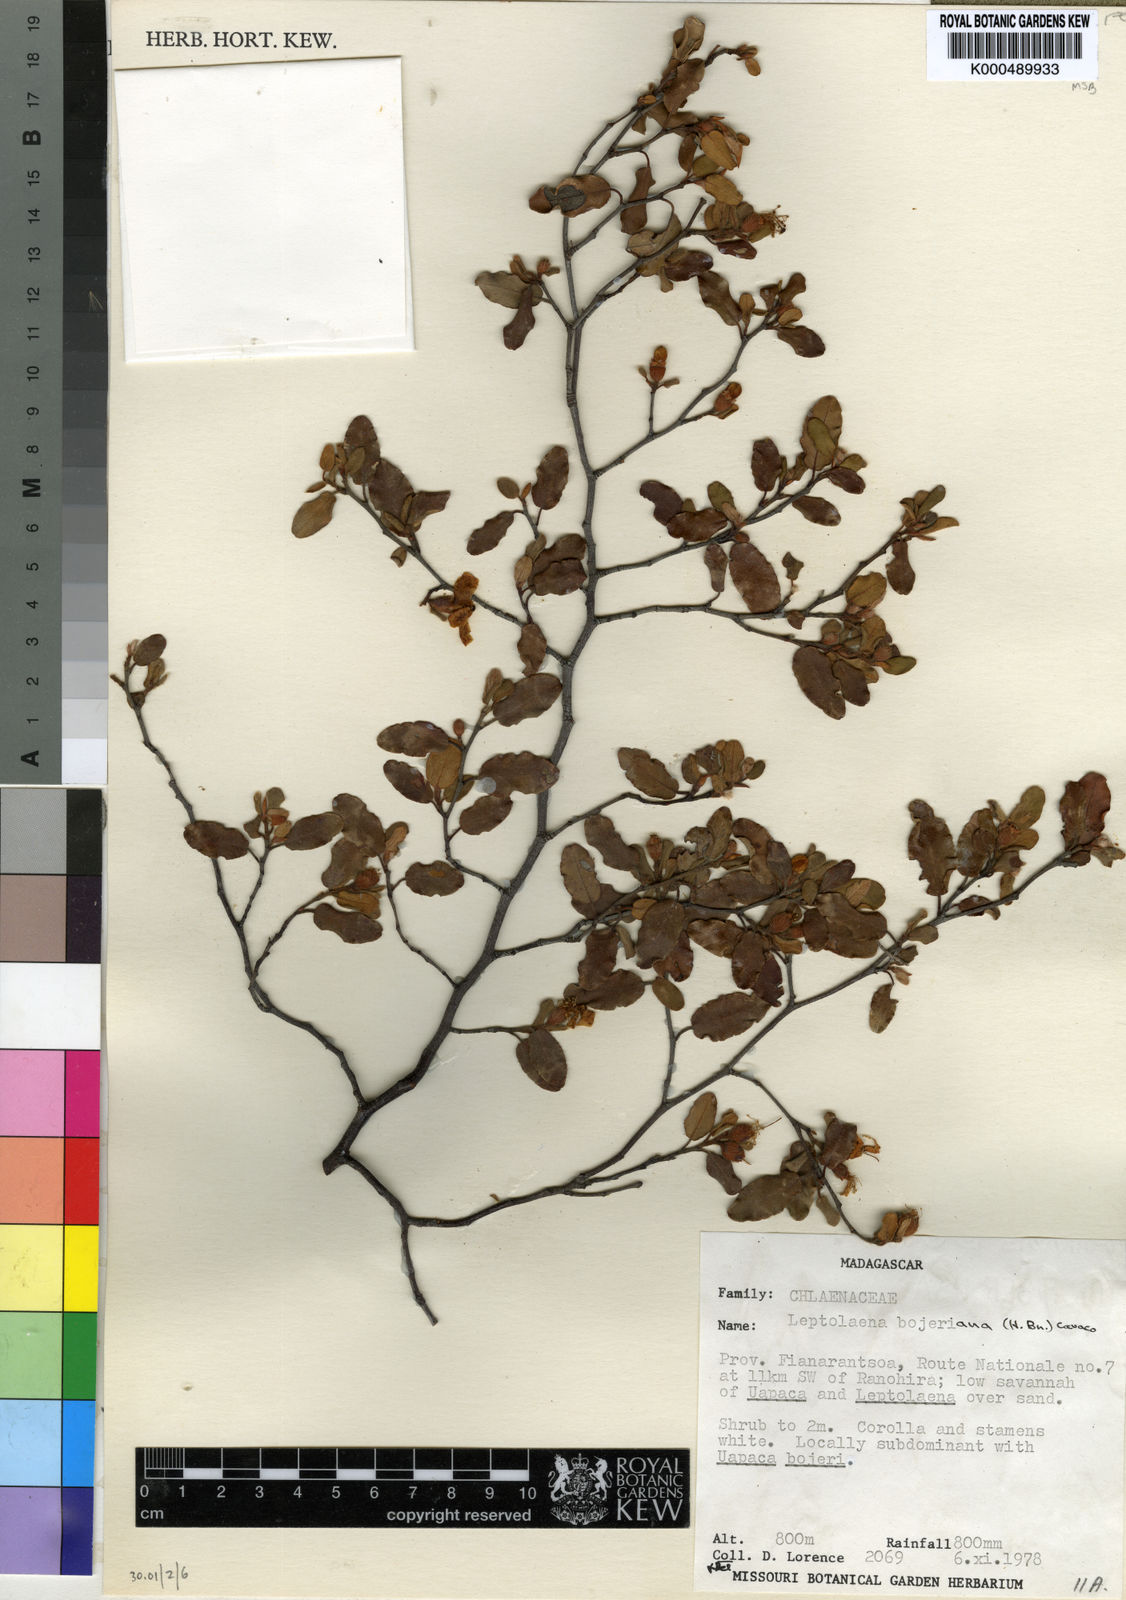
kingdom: Plantae
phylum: Tracheophyta
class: Magnoliopsida
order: Malvales
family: Sarcolaenaceae
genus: Xerochlamys
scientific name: Xerochlamys bojeriana
